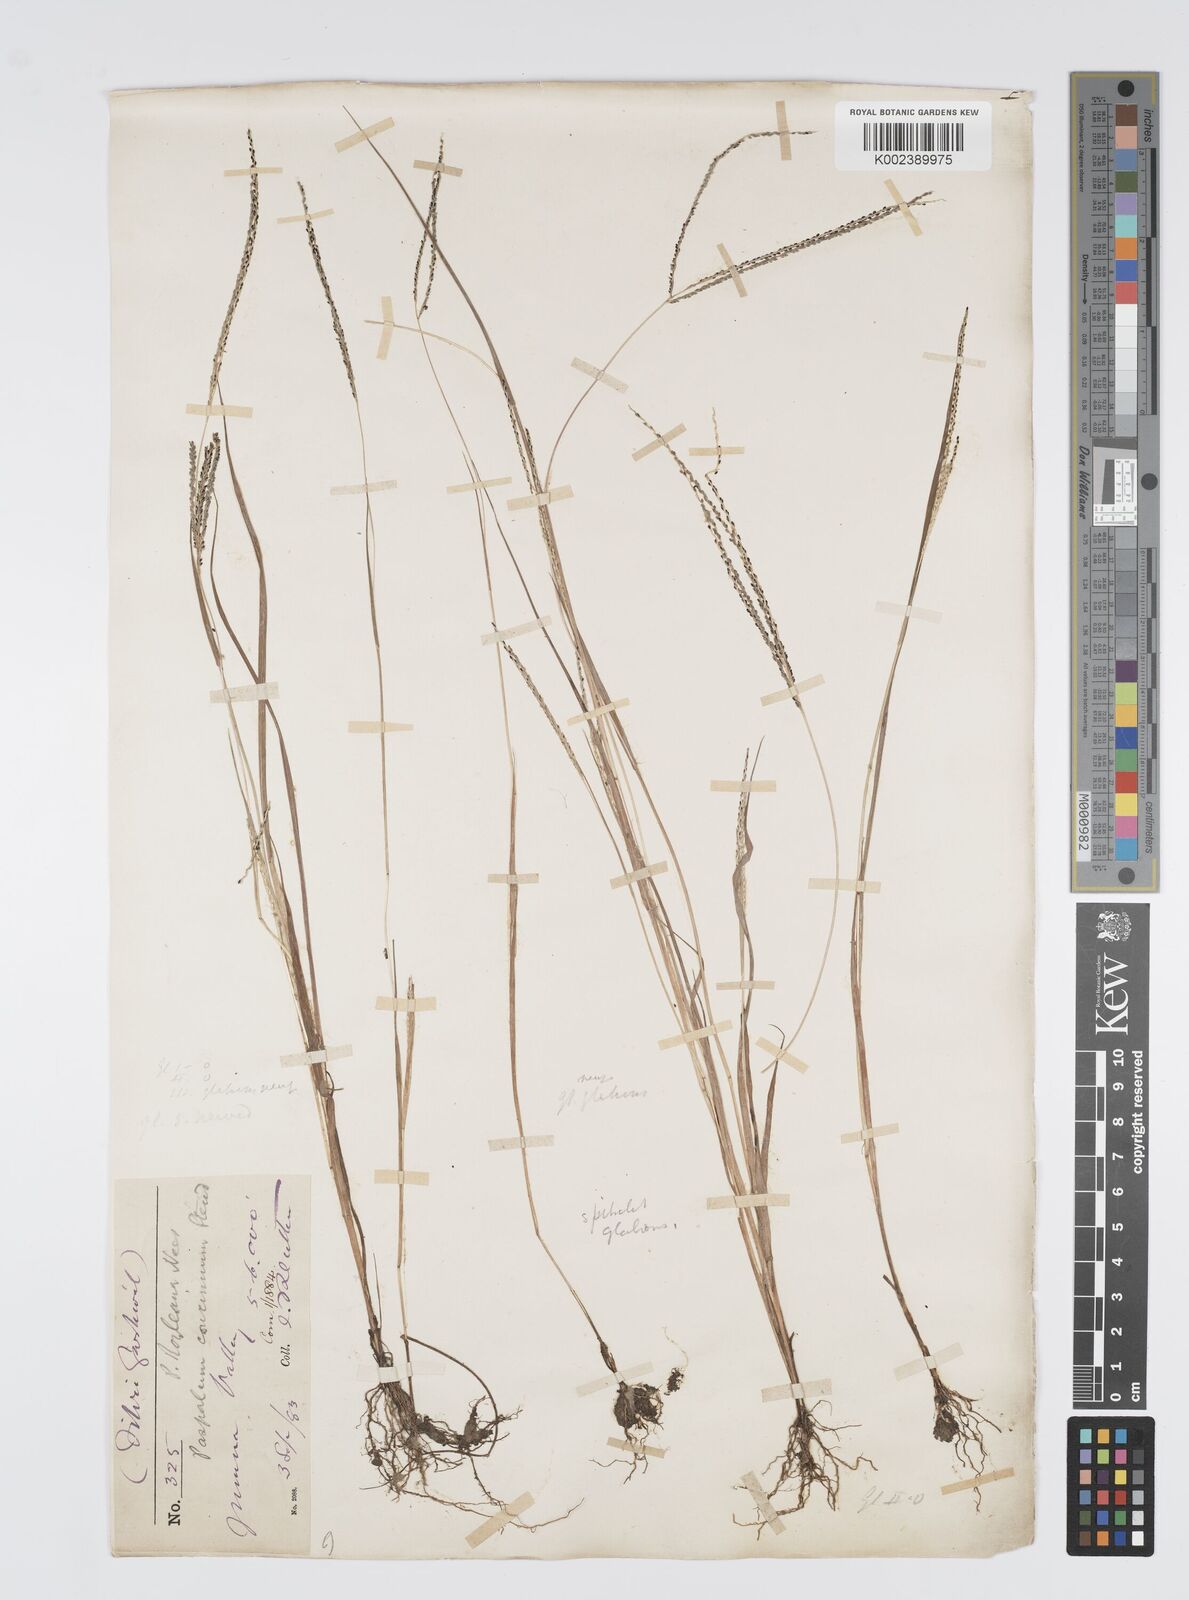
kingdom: Plantae
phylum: Tracheophyta
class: Liliopsida
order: Poales
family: Poaceae
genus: Digitaria
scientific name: Digitaria stricta
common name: Crabgrass
